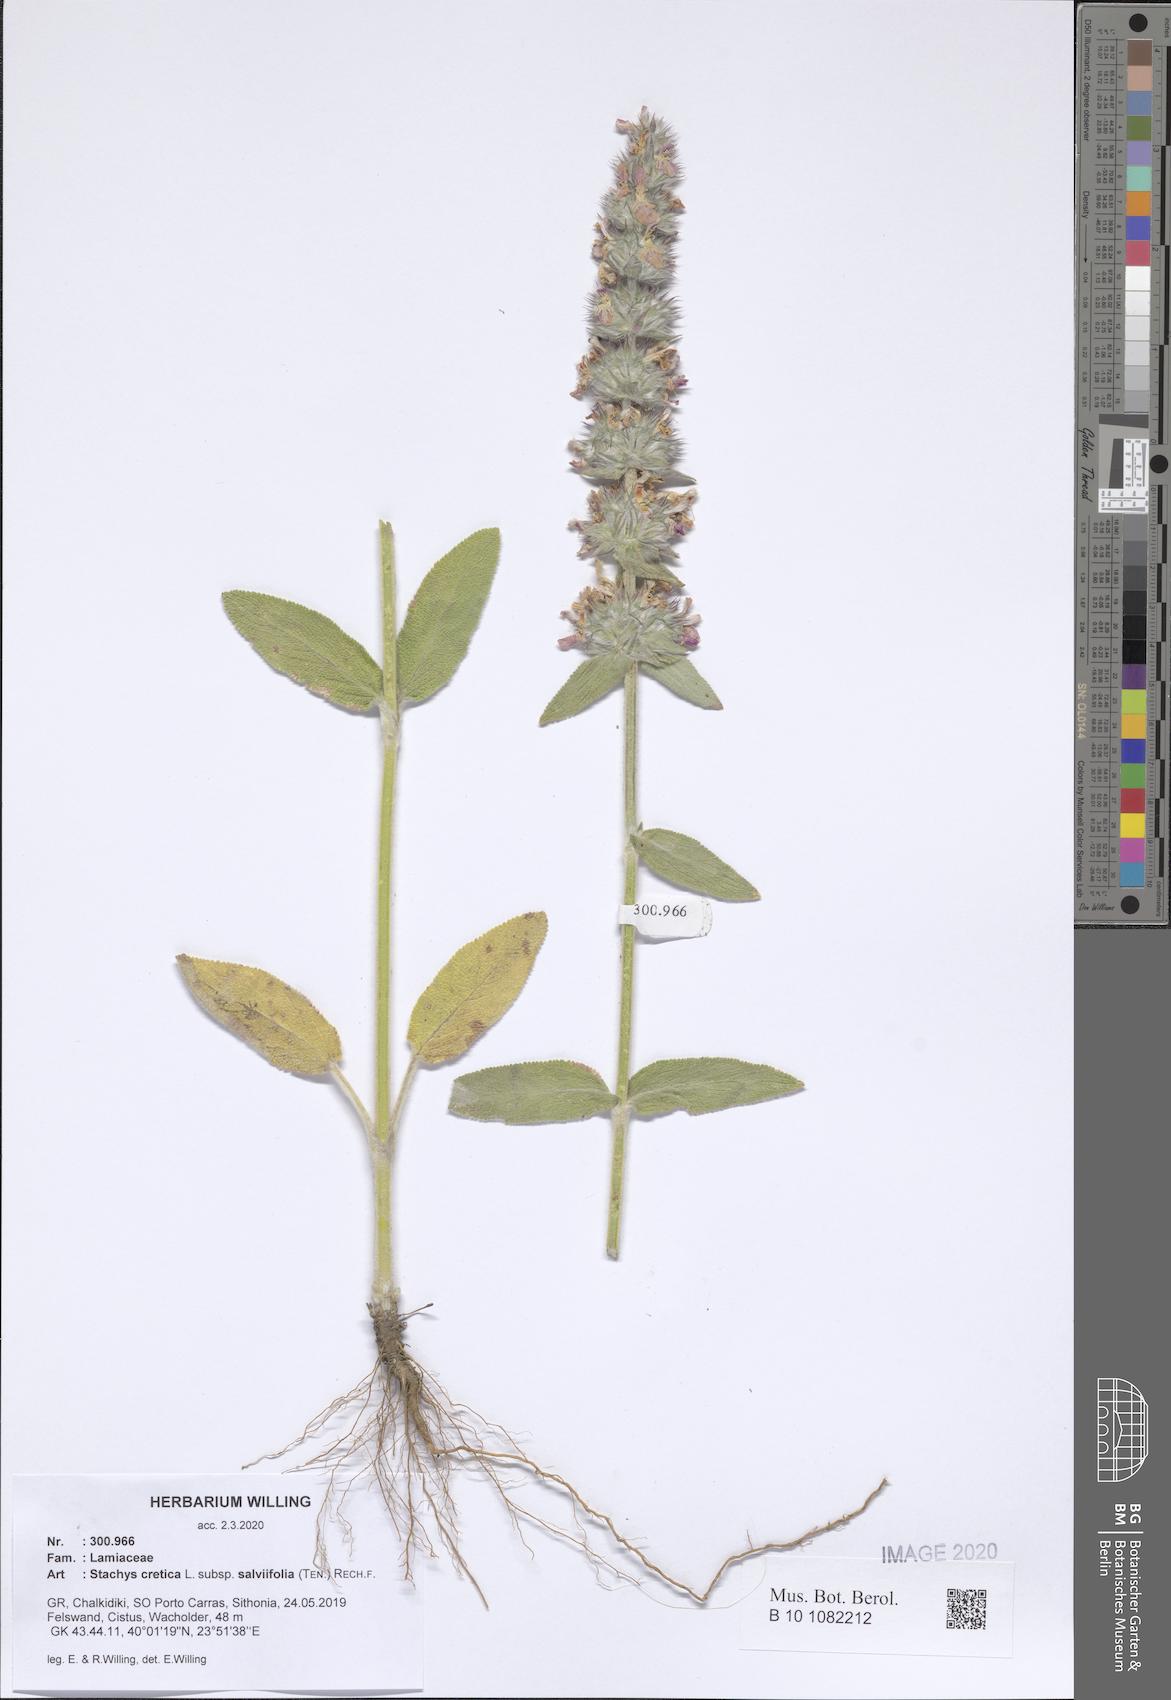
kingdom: Plantae
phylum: Tracheophyta
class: Magnoliopsida
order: Lamiales
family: Lamiaceae
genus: Stachys
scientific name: Stachys cretica
